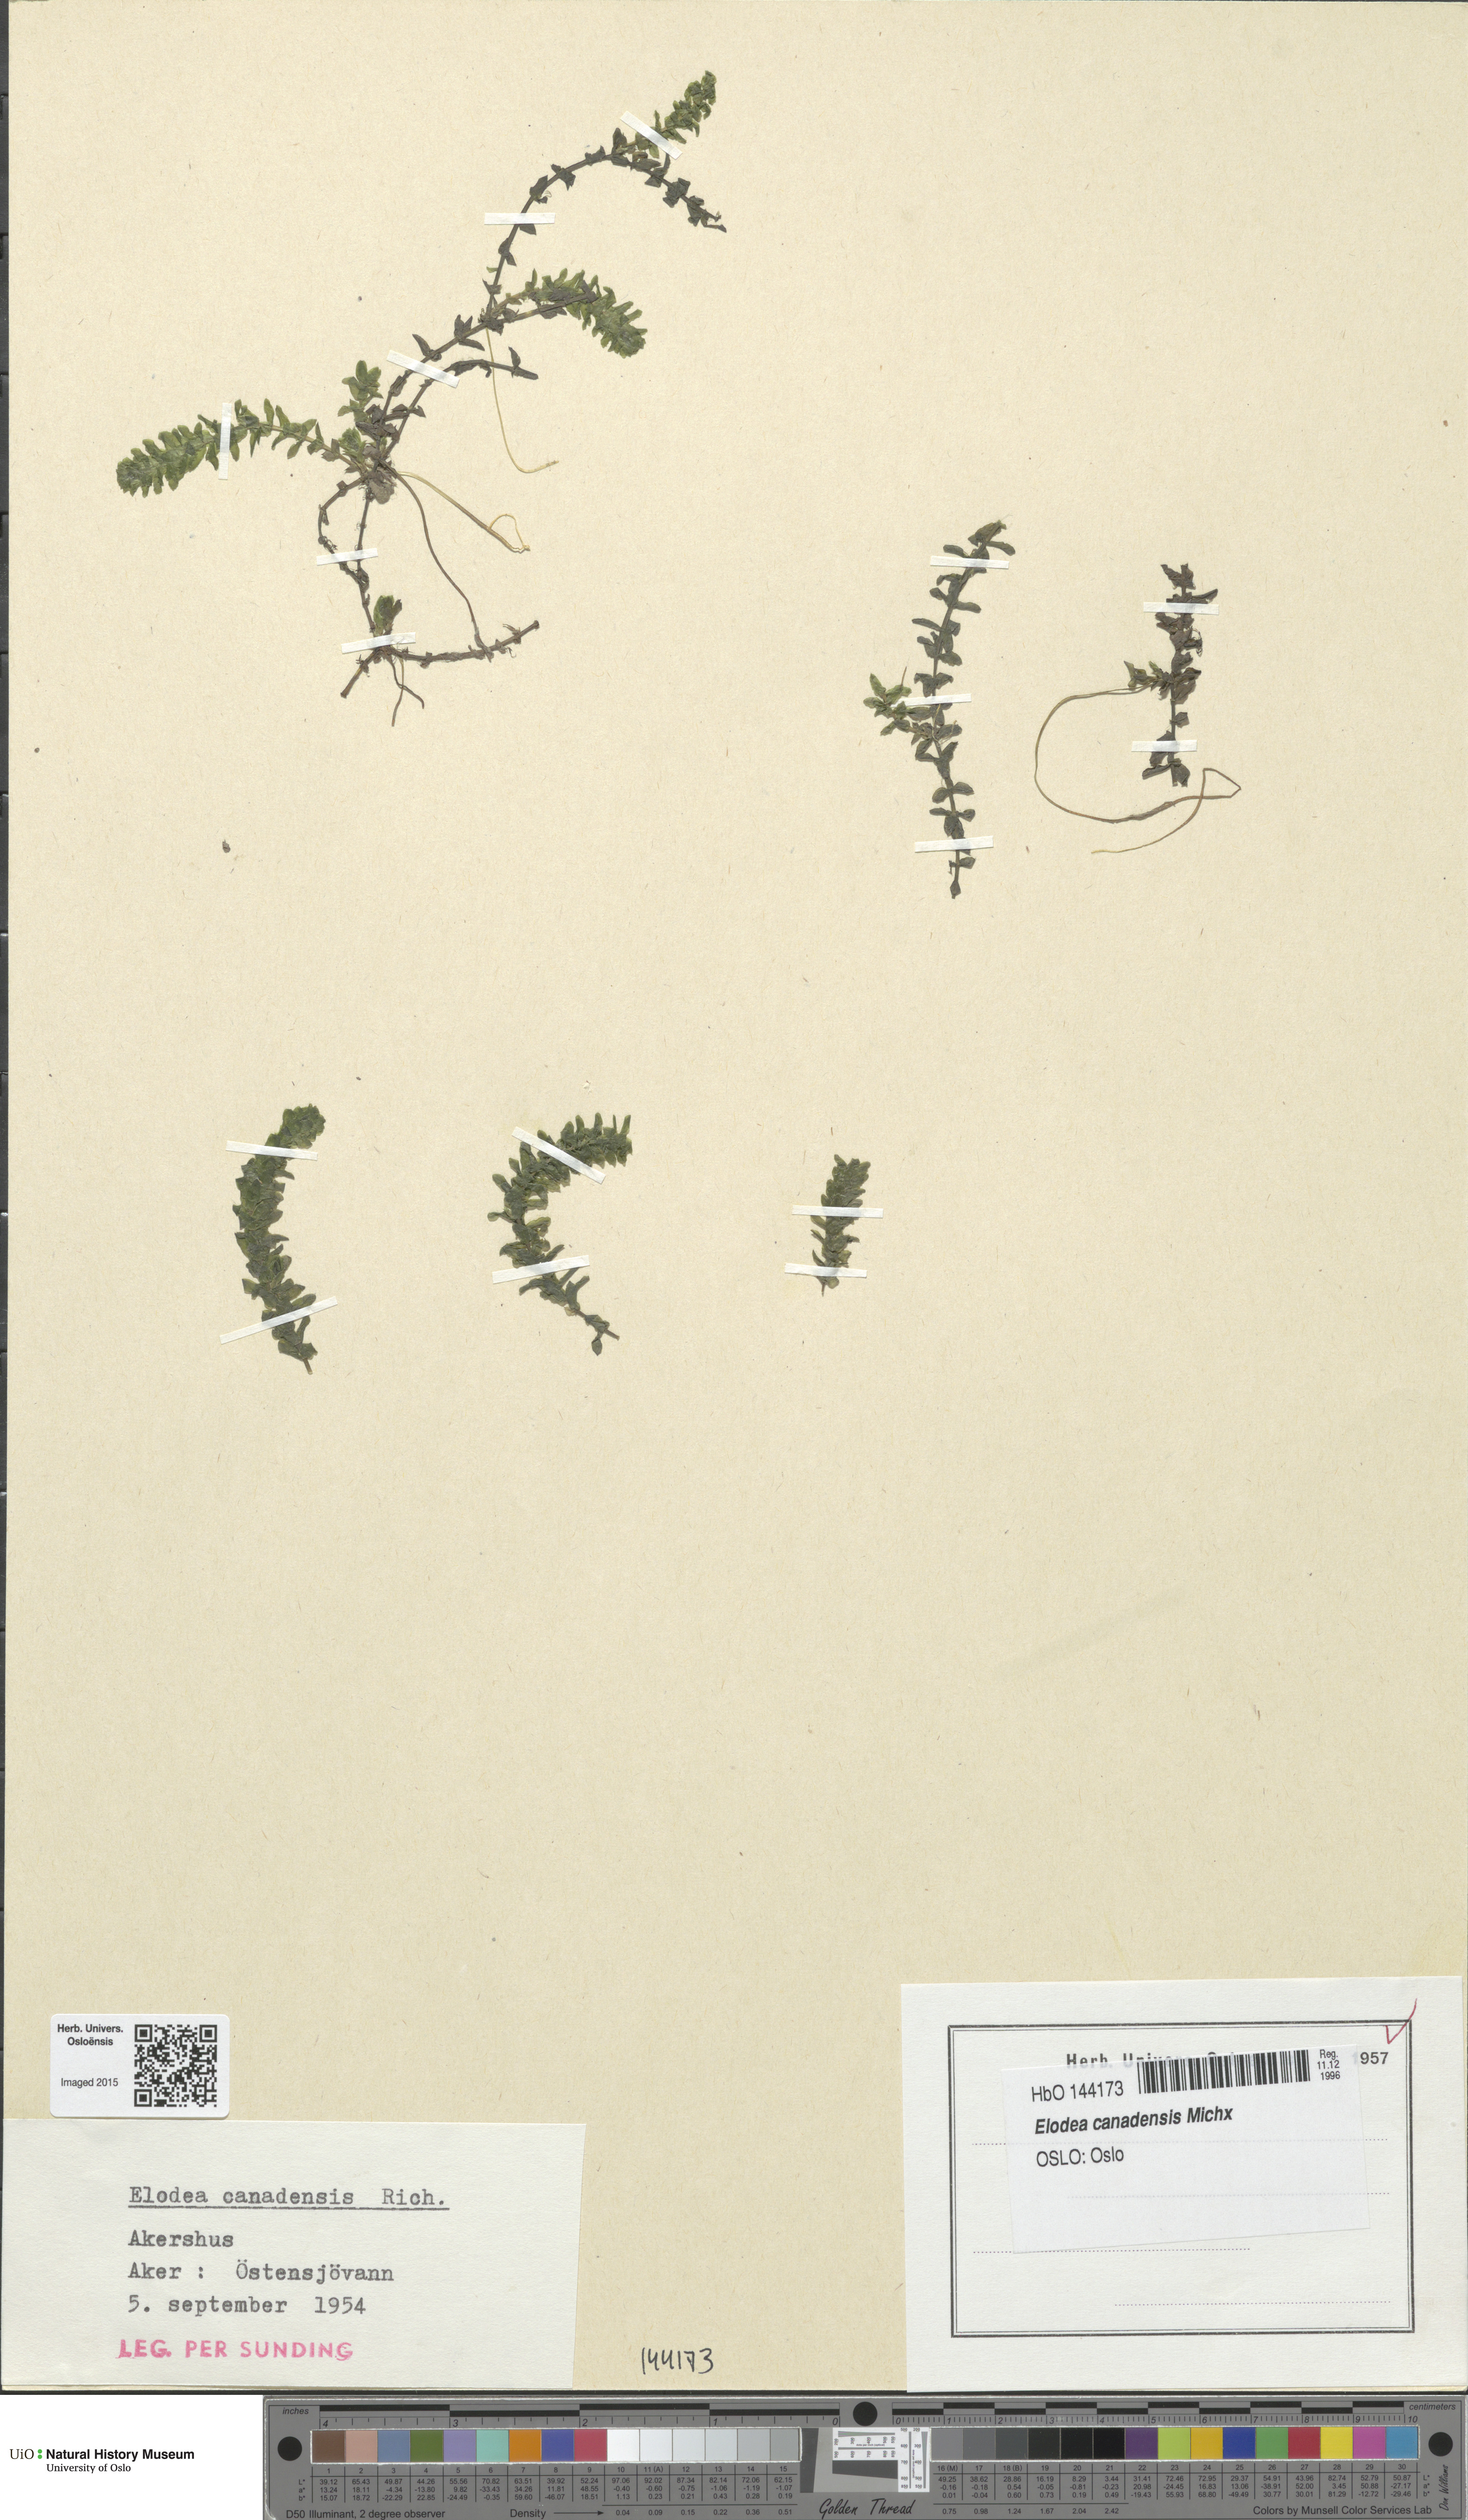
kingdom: Plantae
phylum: Tracheophyta
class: Liliopsida
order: Alismatales
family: Hydrocharitaceae
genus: Elodea
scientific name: Elodea canadensis
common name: Canadian waterweed
